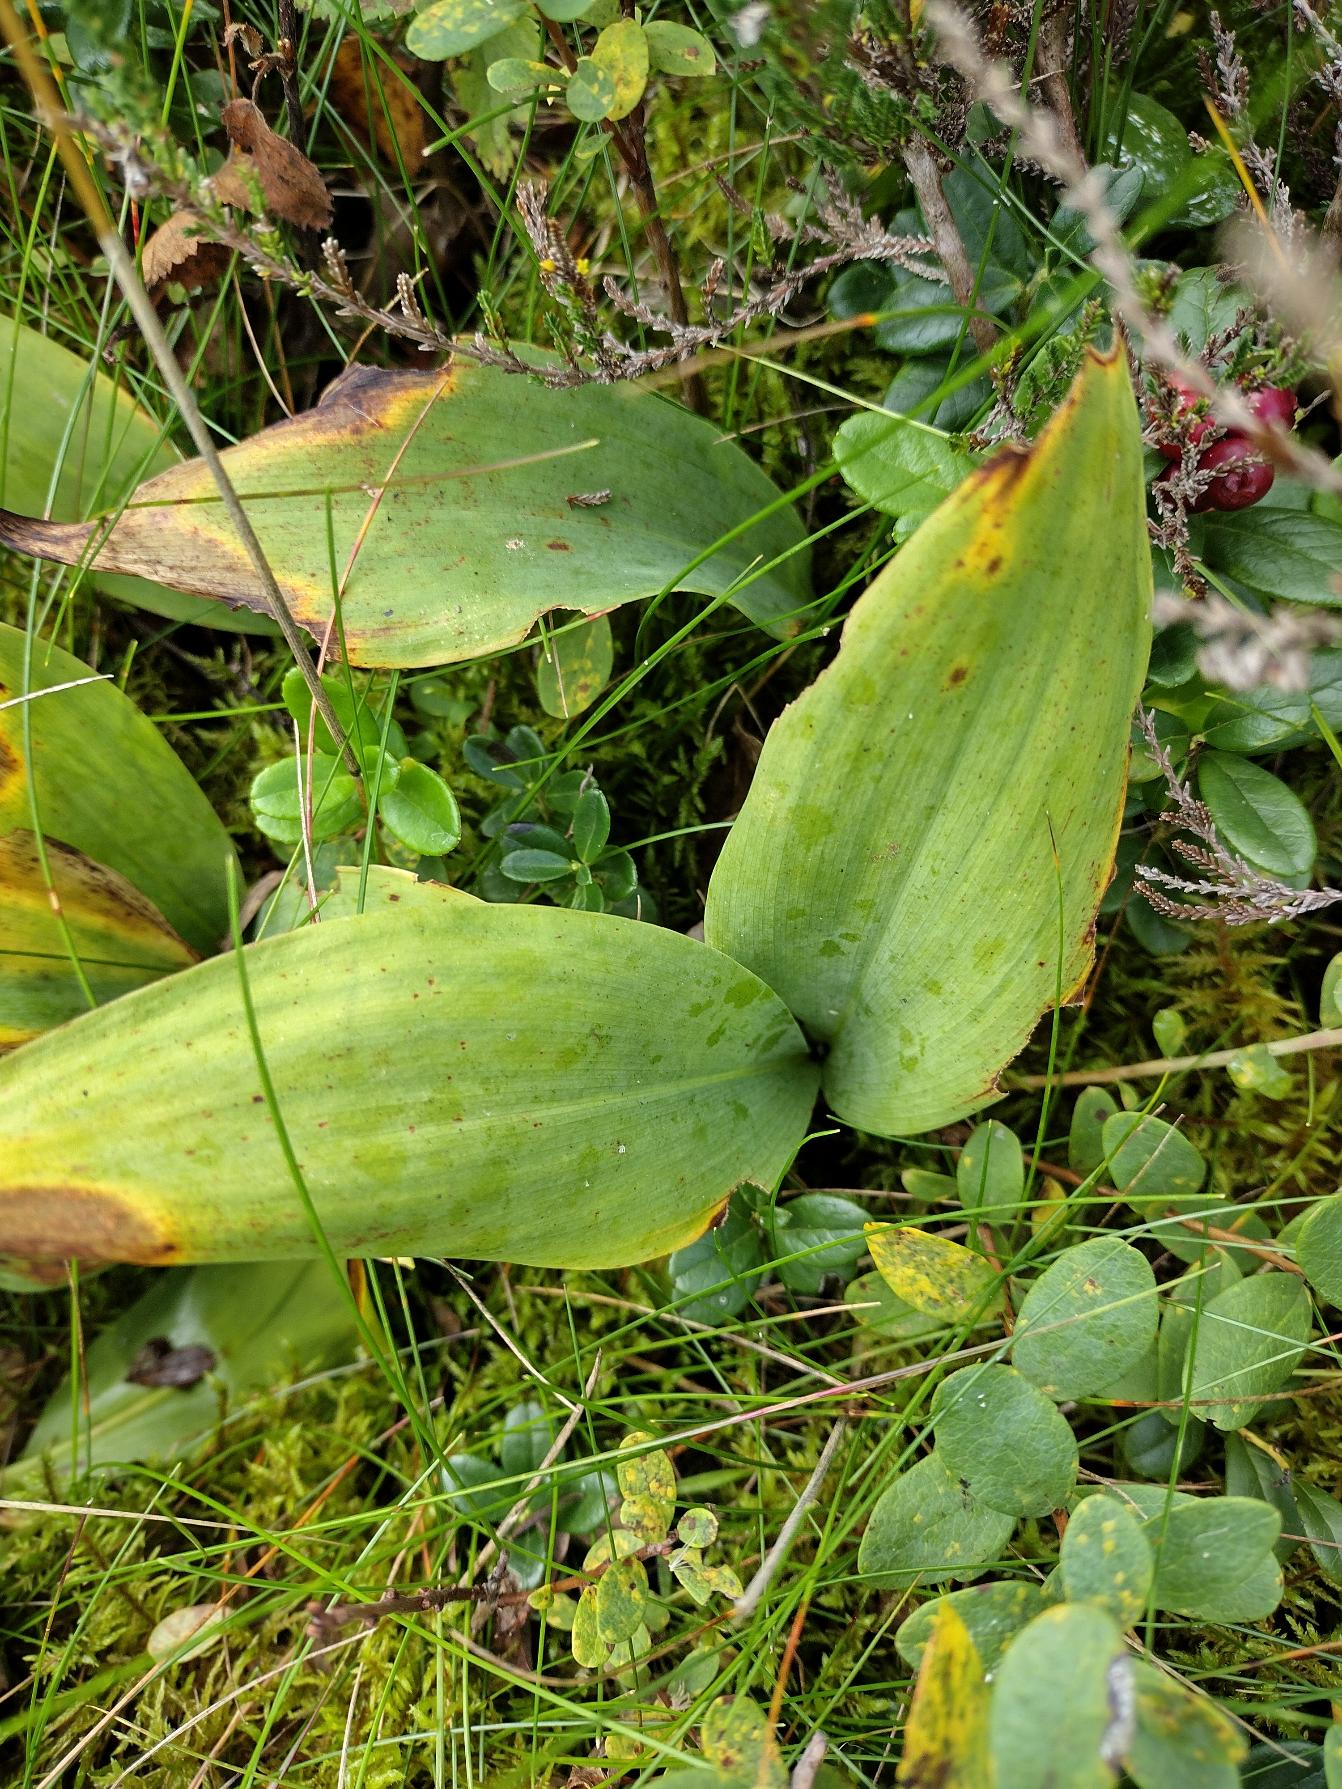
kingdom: Plantae
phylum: Tracheophyta
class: Liliopsida
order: Asparagales
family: Asparagaceae
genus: Convallaria
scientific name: Convallaria majalis
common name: Liljekonval
